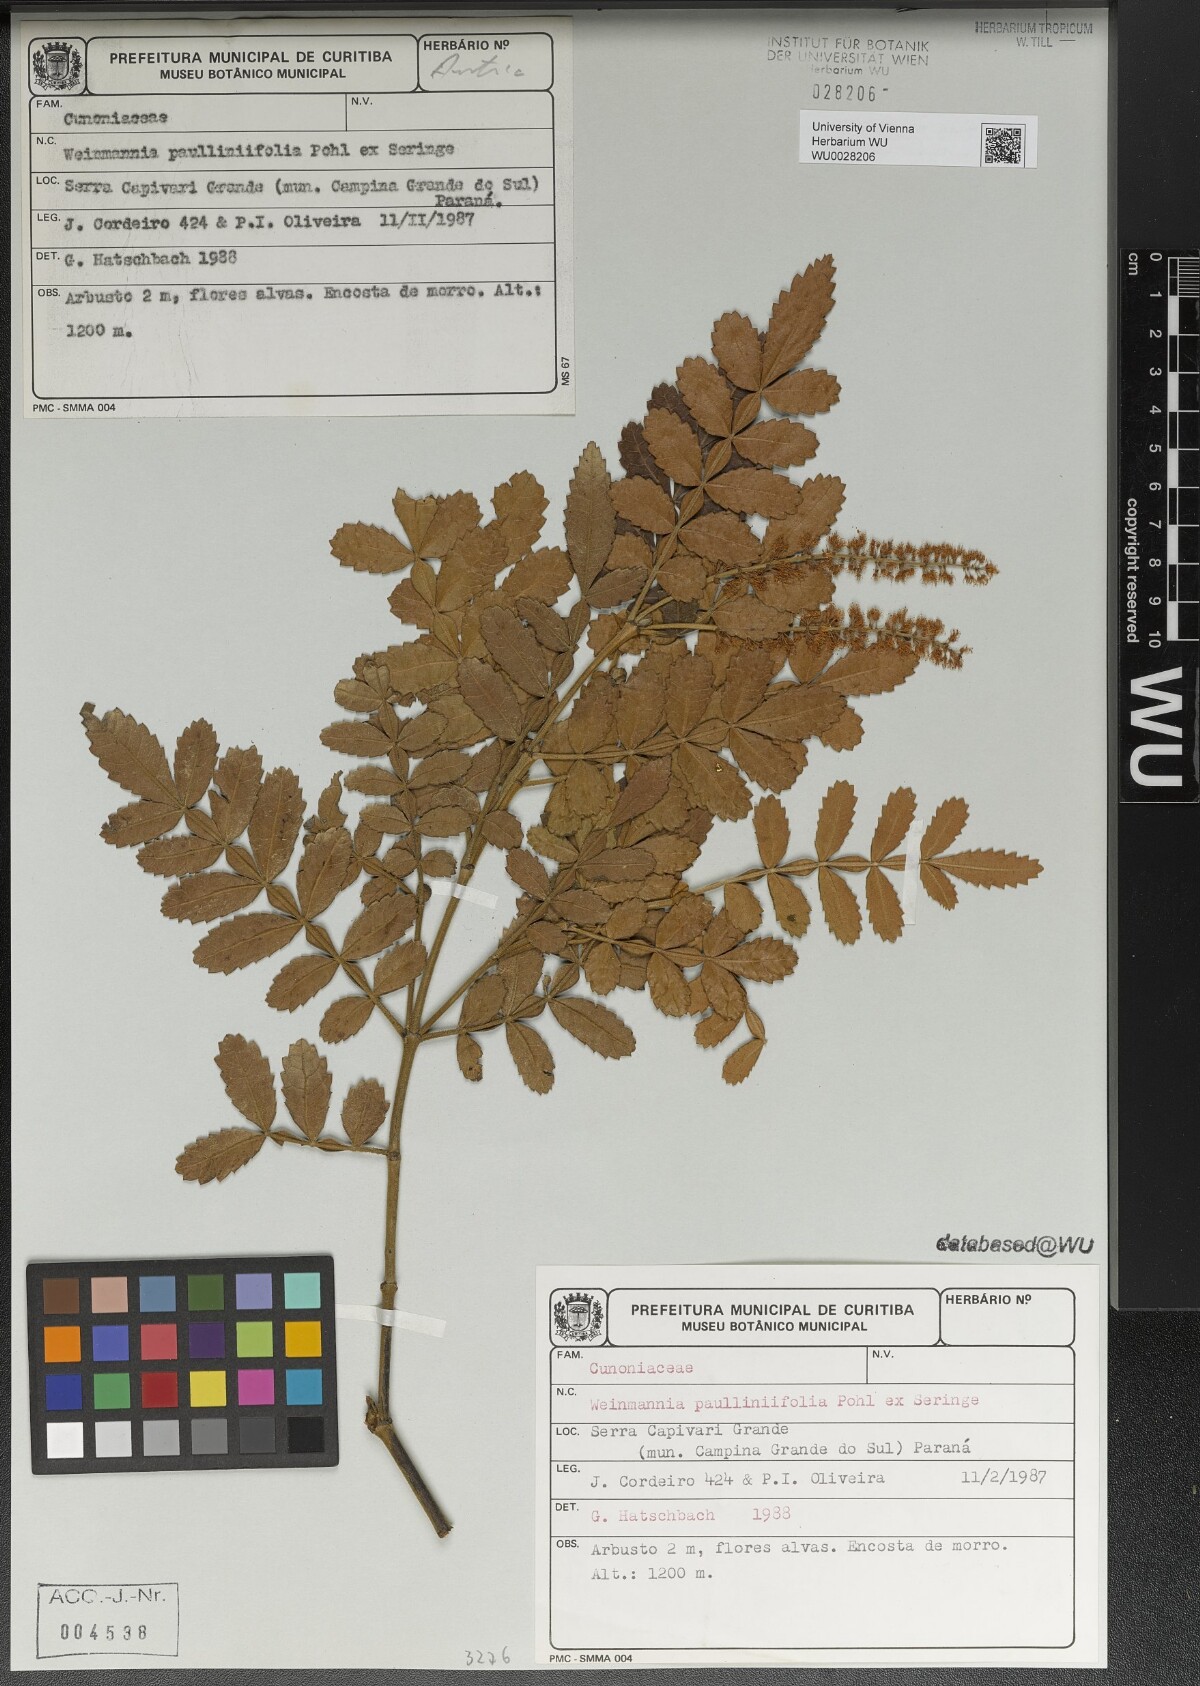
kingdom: Plantae
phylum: Tracheophyta
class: Magnoliopsida
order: Oxalidales
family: Cunoniaceae
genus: Weinmannia
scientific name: Weinmannia paullinifolia
